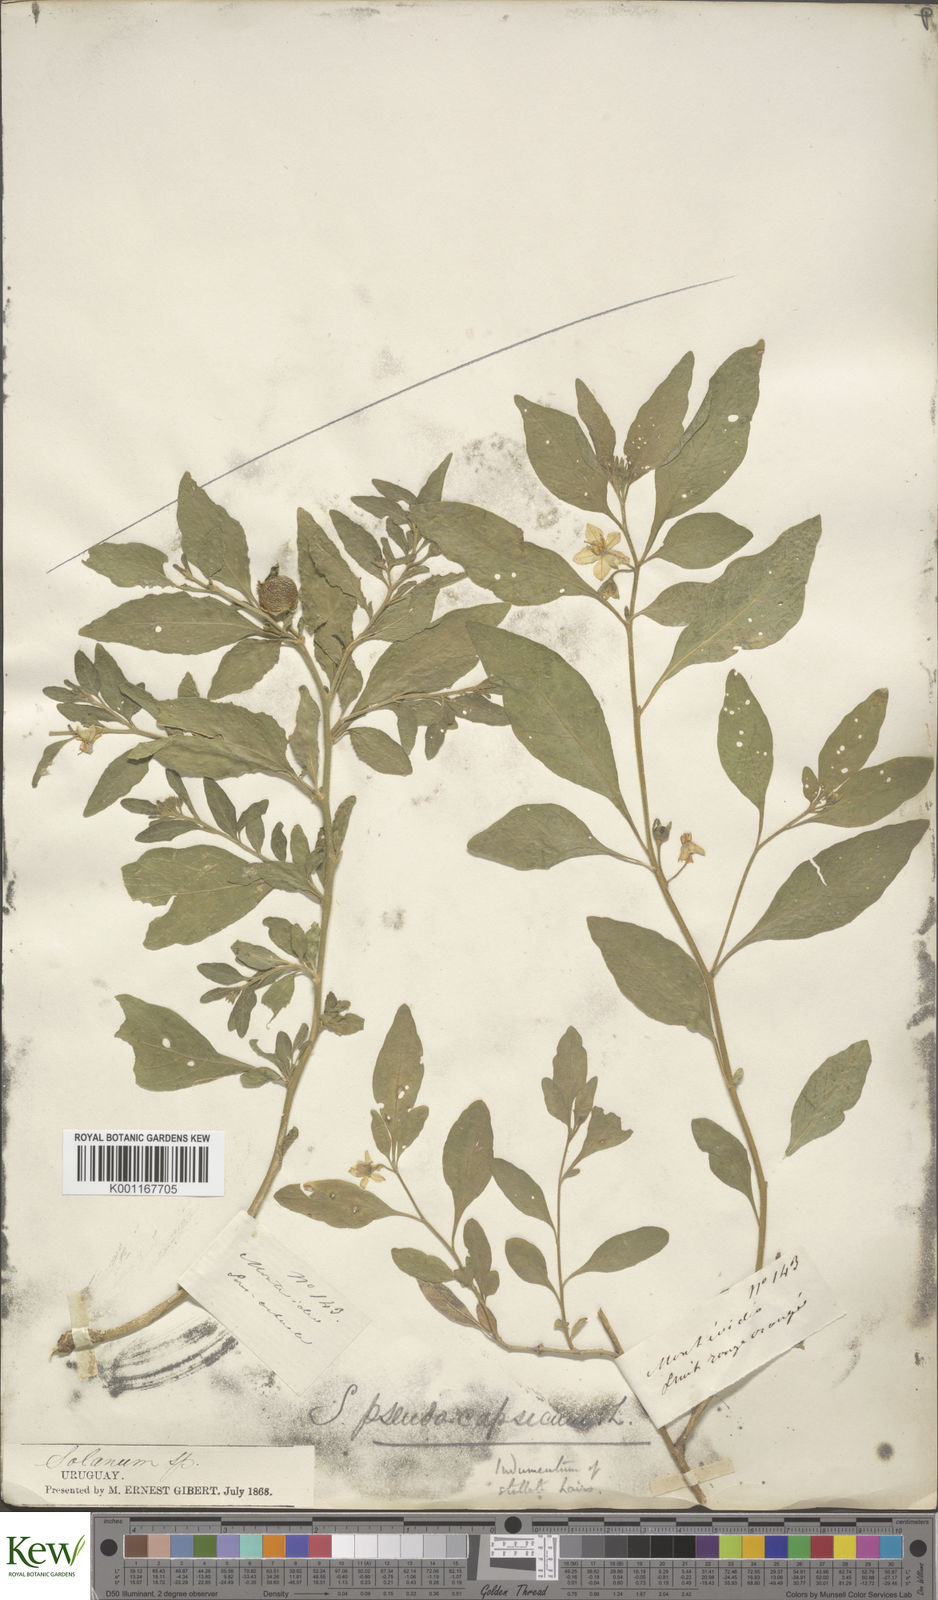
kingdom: Plantae
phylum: Tracheophyta
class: Magnoliopsida
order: Solanales
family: Solanaceae
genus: Solanum
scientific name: Solanum pseudocapsicum
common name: Jerusalem cherry
